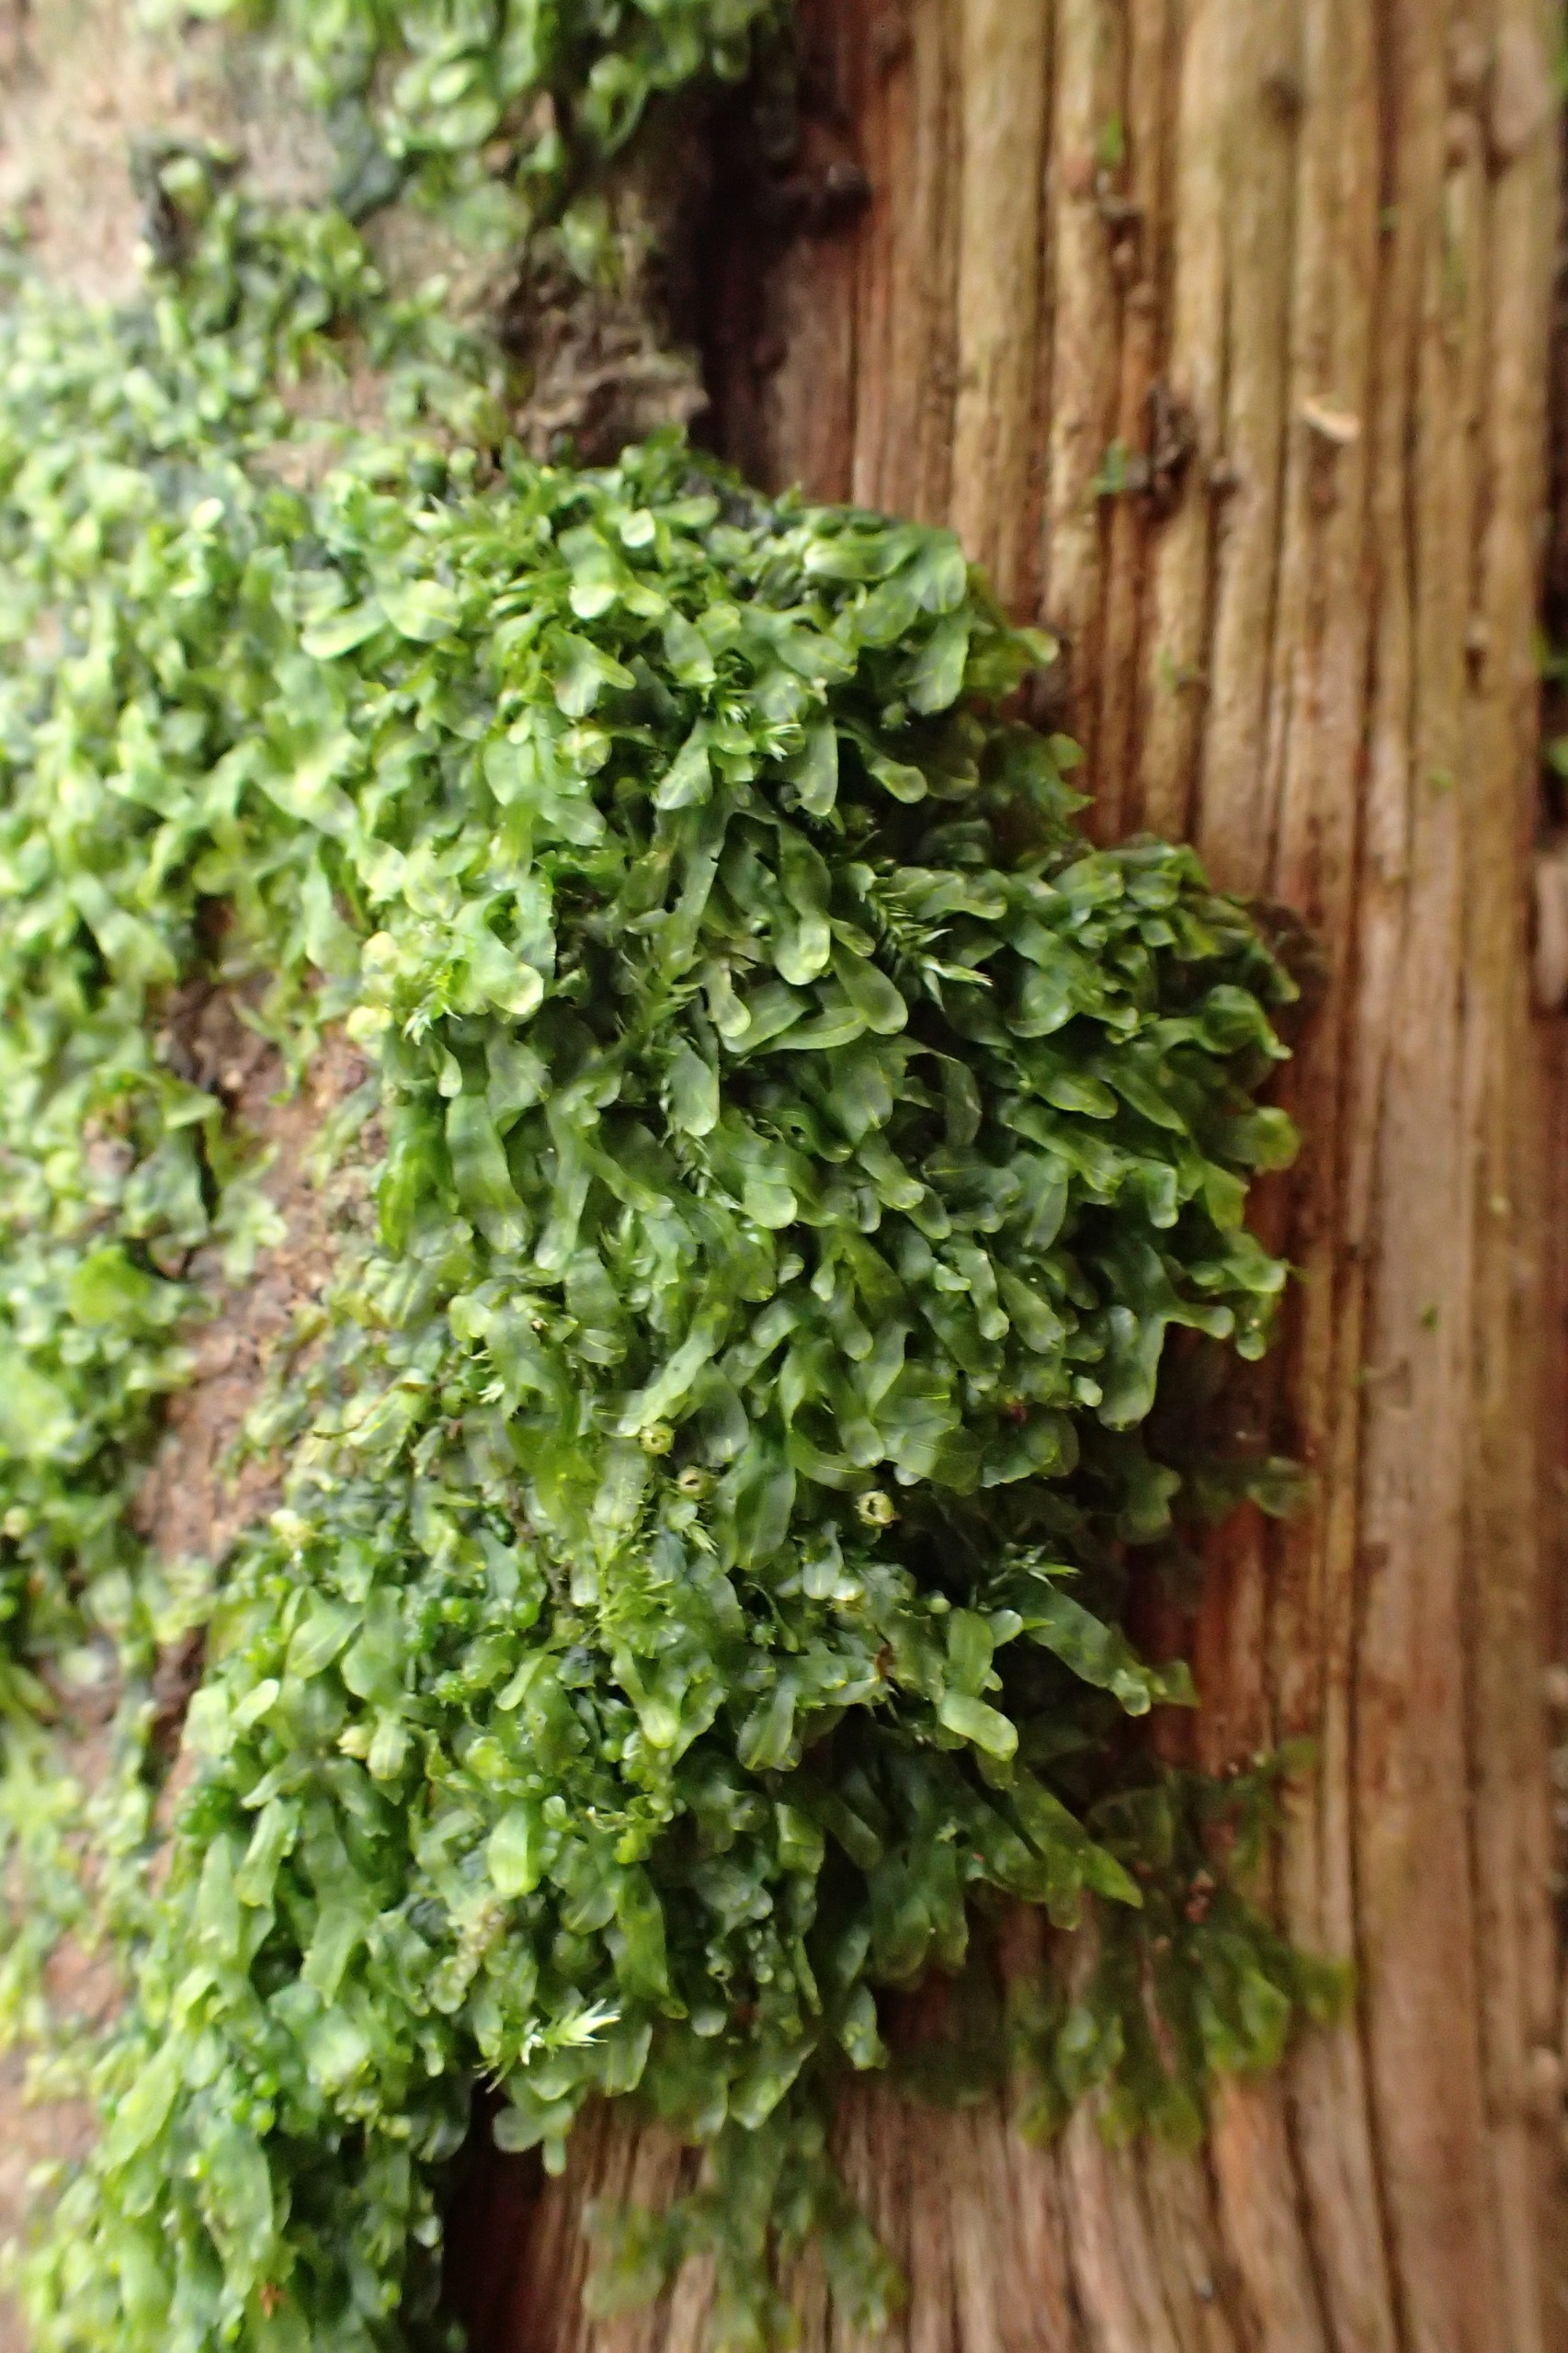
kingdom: Plantae
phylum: Marchantiophyta
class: Jungermanniopsida
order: Metzgeriales
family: Metzgeriaceae
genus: Metzgeria
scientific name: Metzgeria furcata
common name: Almindelig gaffelløv
